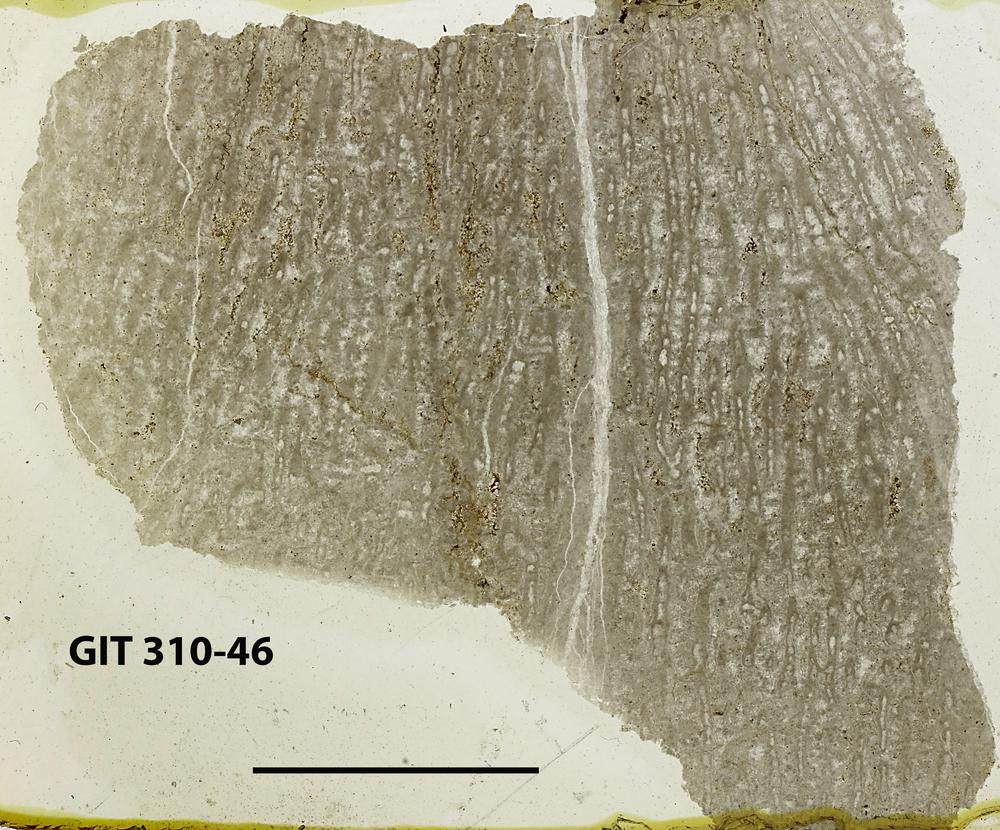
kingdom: Animalia
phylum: Porifera
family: Labechiidae
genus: Labechiella
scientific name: Labechiella
